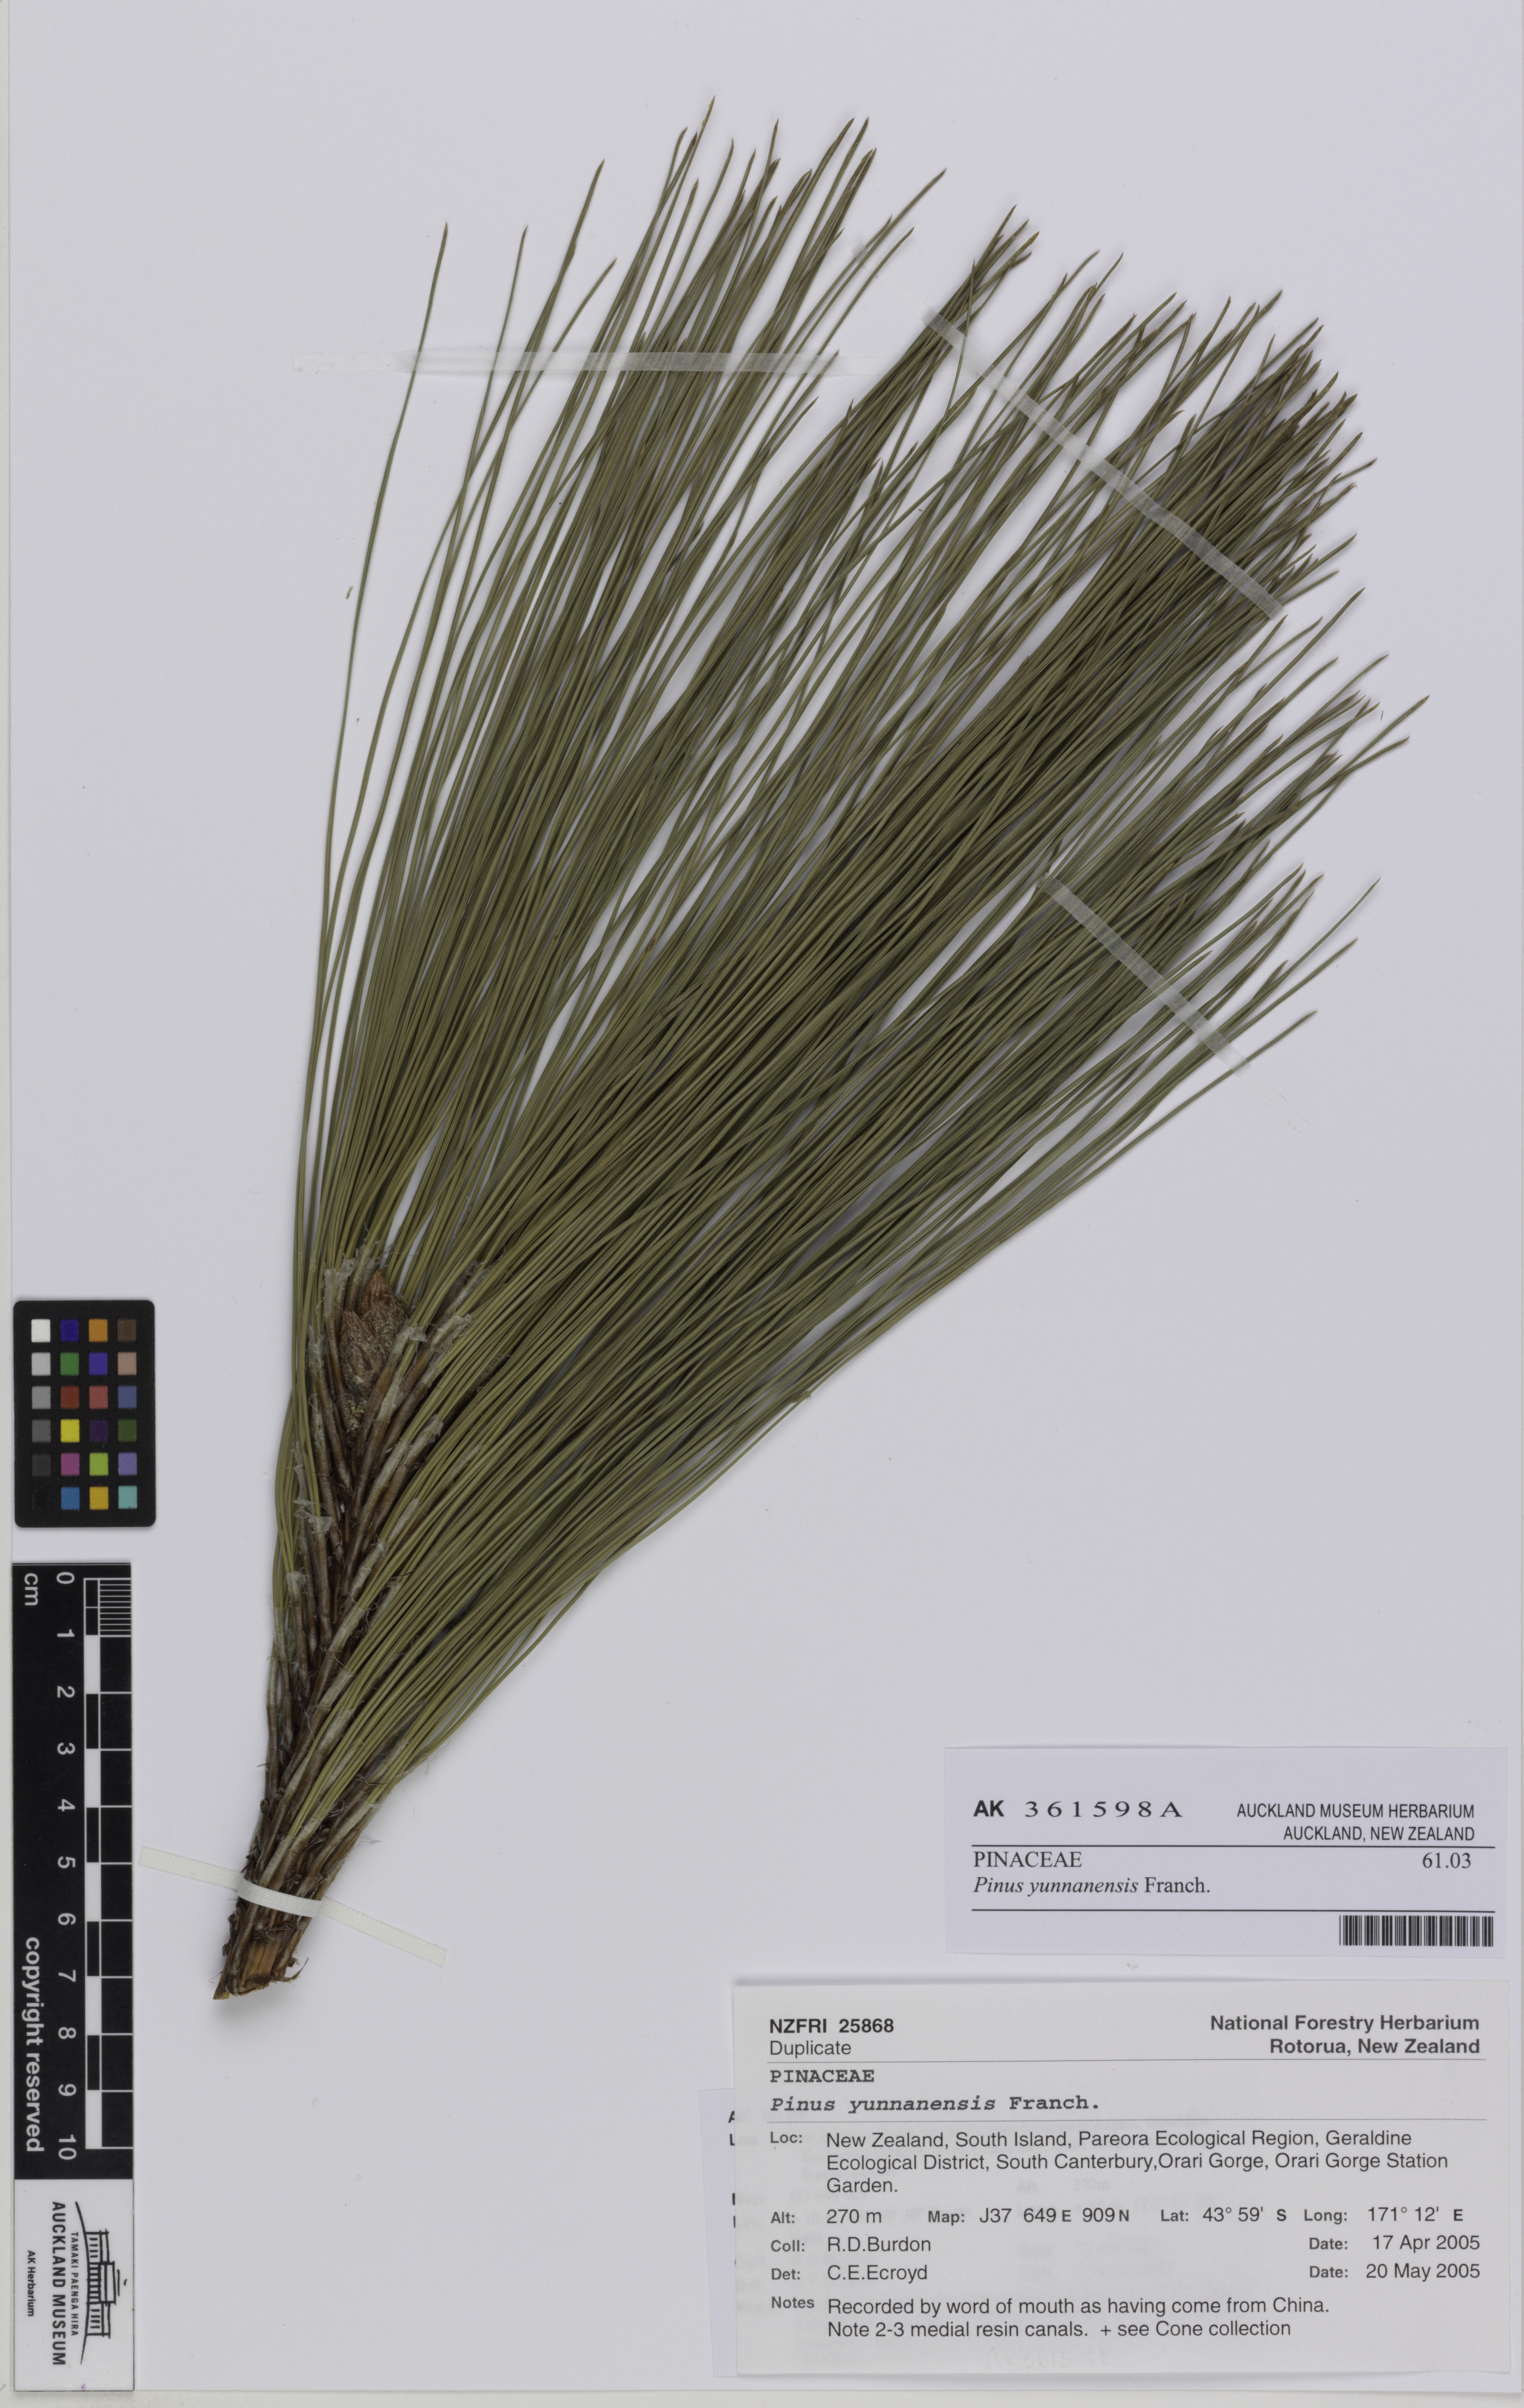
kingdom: Plantae
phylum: Tracheophyta
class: Pinopsida
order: Pinales
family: Pinaceae
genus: Pinus
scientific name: Pinus yunnanensis
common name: Yunnan pine
